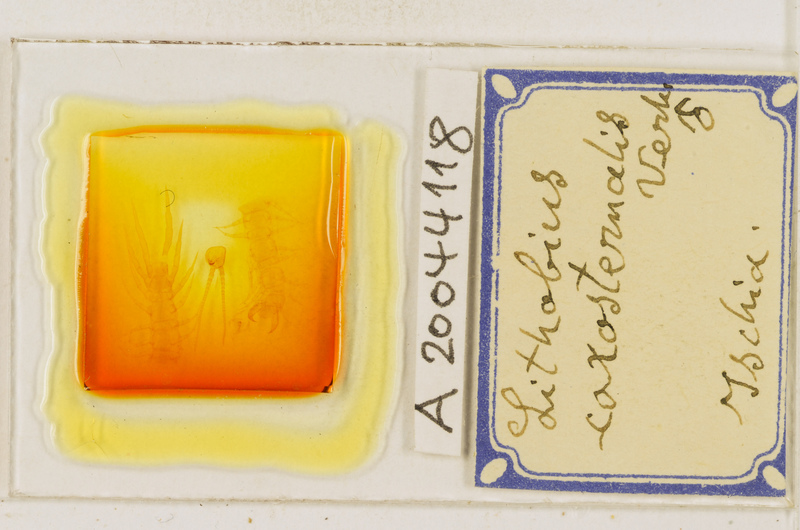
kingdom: Animalia
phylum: Arthropoda
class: Chilopoda
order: Lithobiomorpha
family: Lithobiidae
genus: Lithobius
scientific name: Lithobius erythrocephalus
